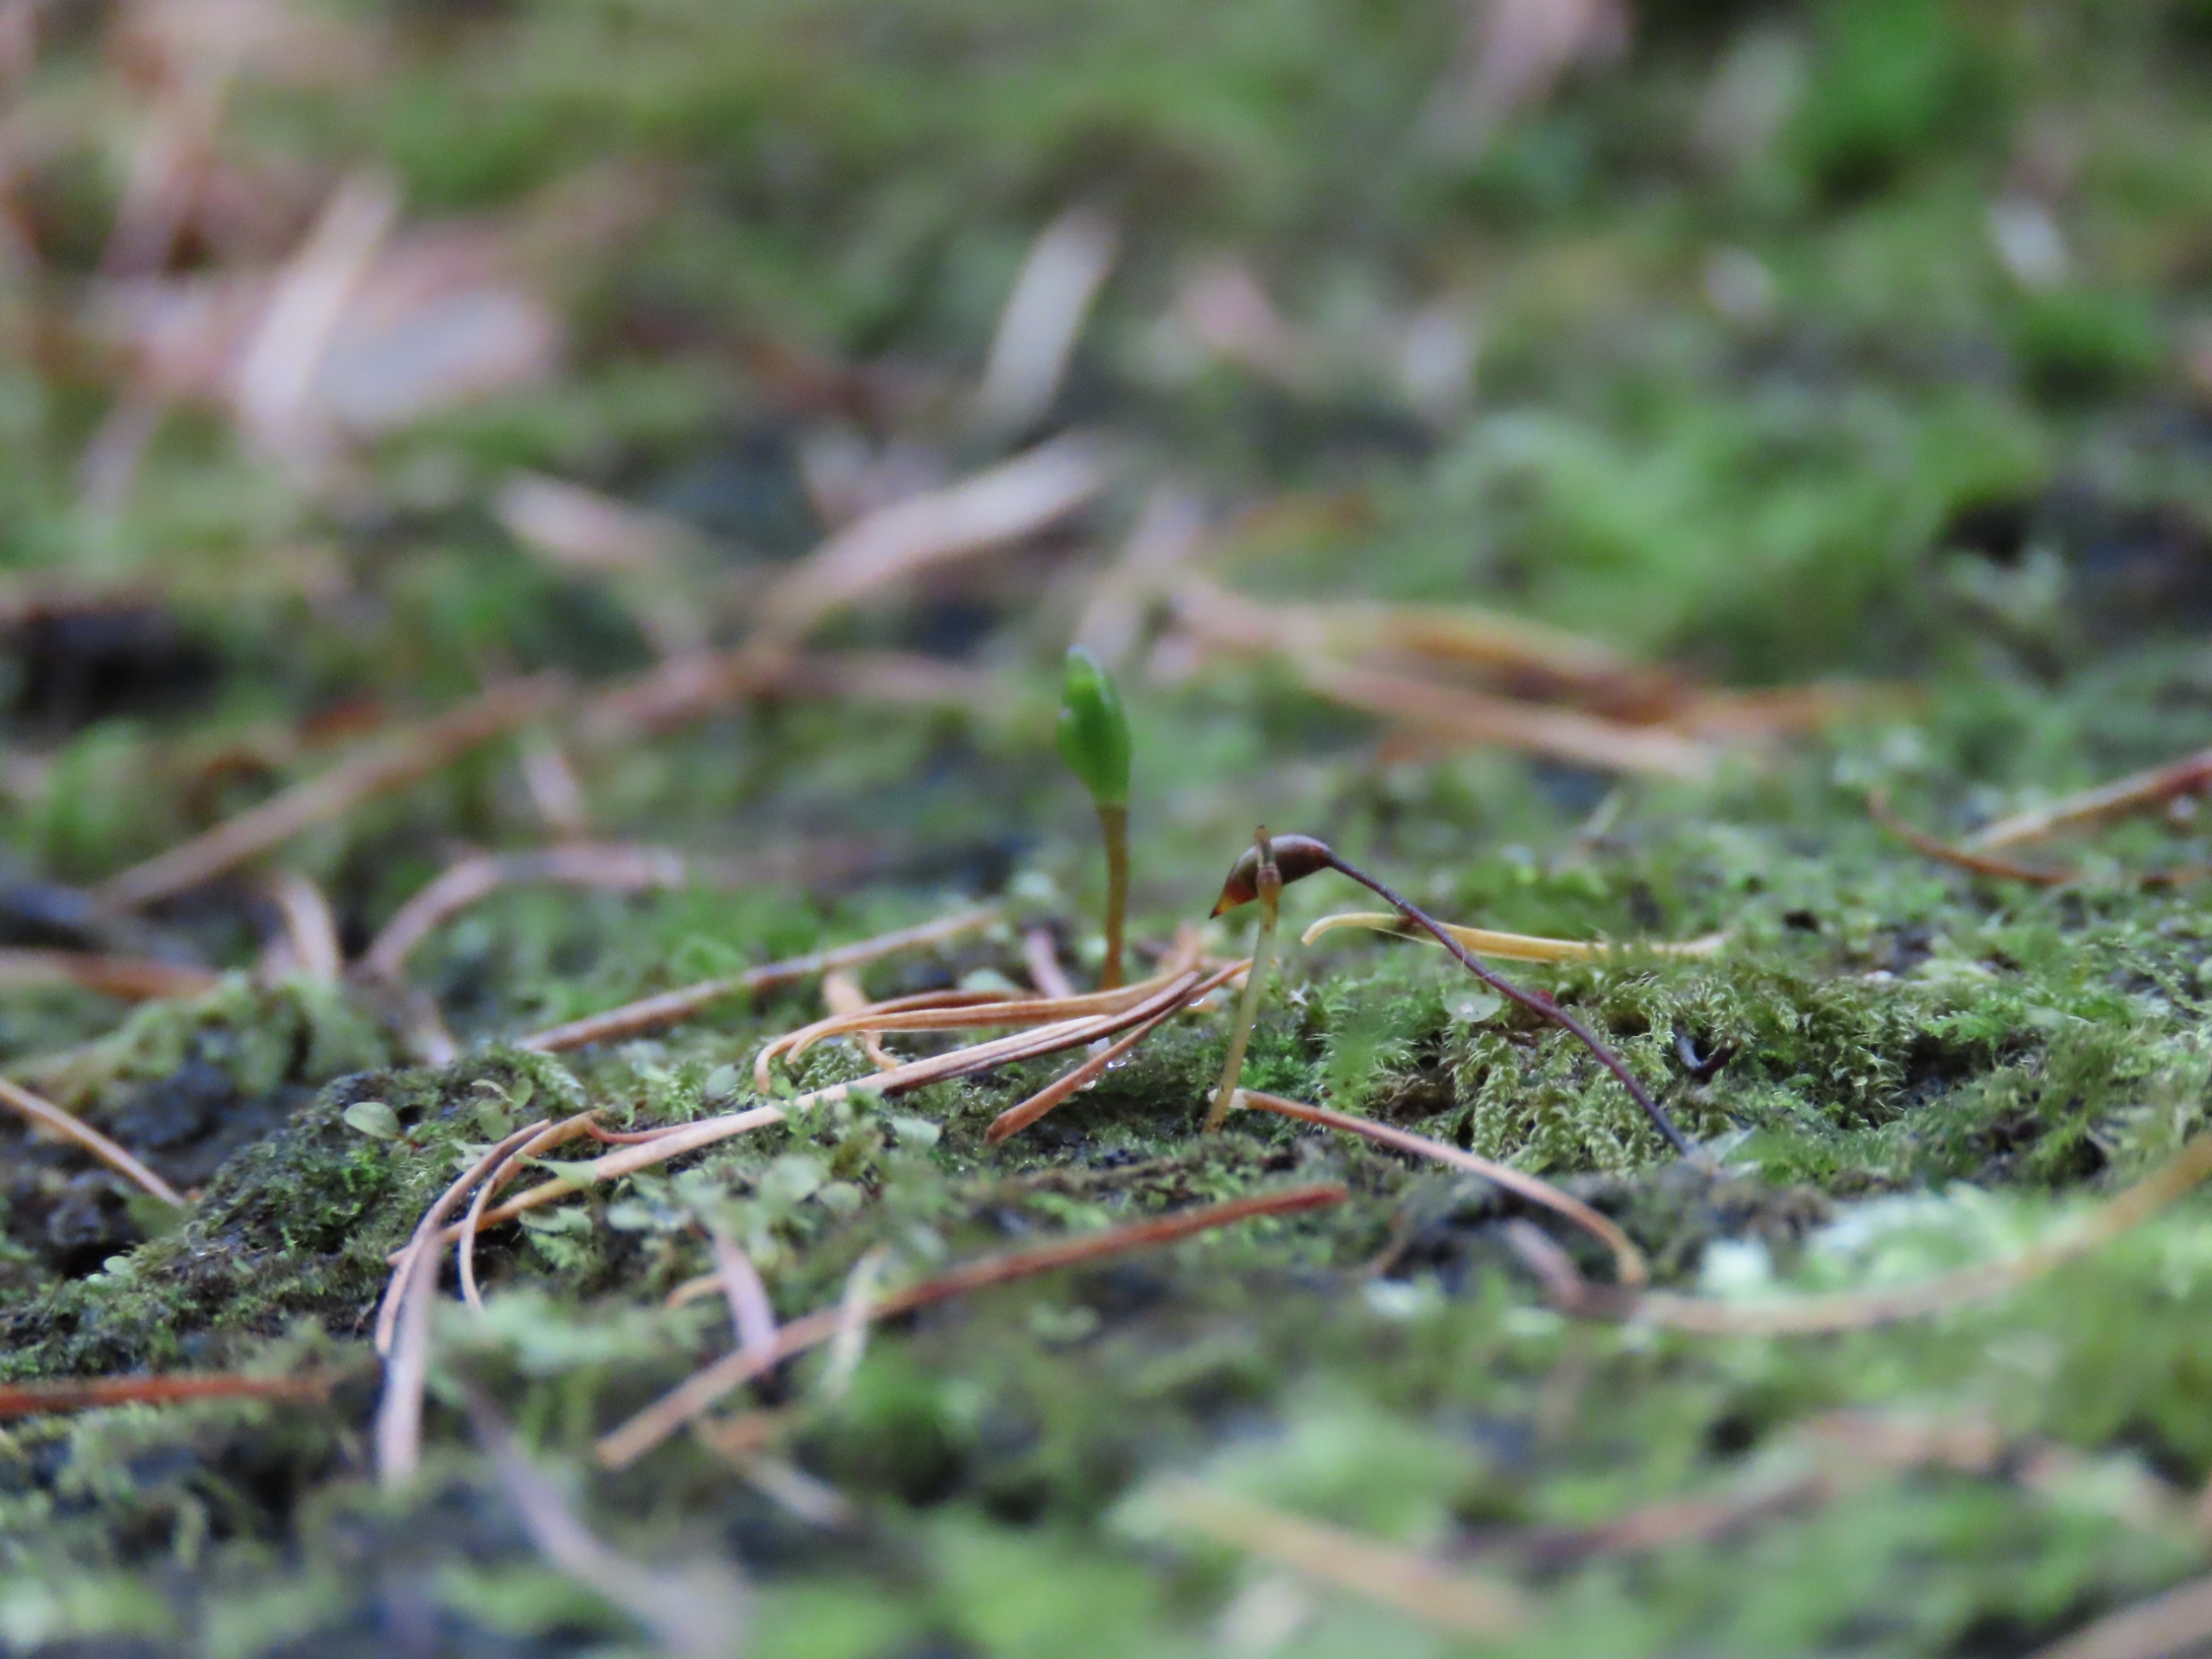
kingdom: Plantae
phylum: Bryophyta
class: Bryopsida
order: Buxbaumiales
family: Buxbaumiaceae
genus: Buxbaumia
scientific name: Buxbaumia viridis
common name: Grøn buxbaumia
